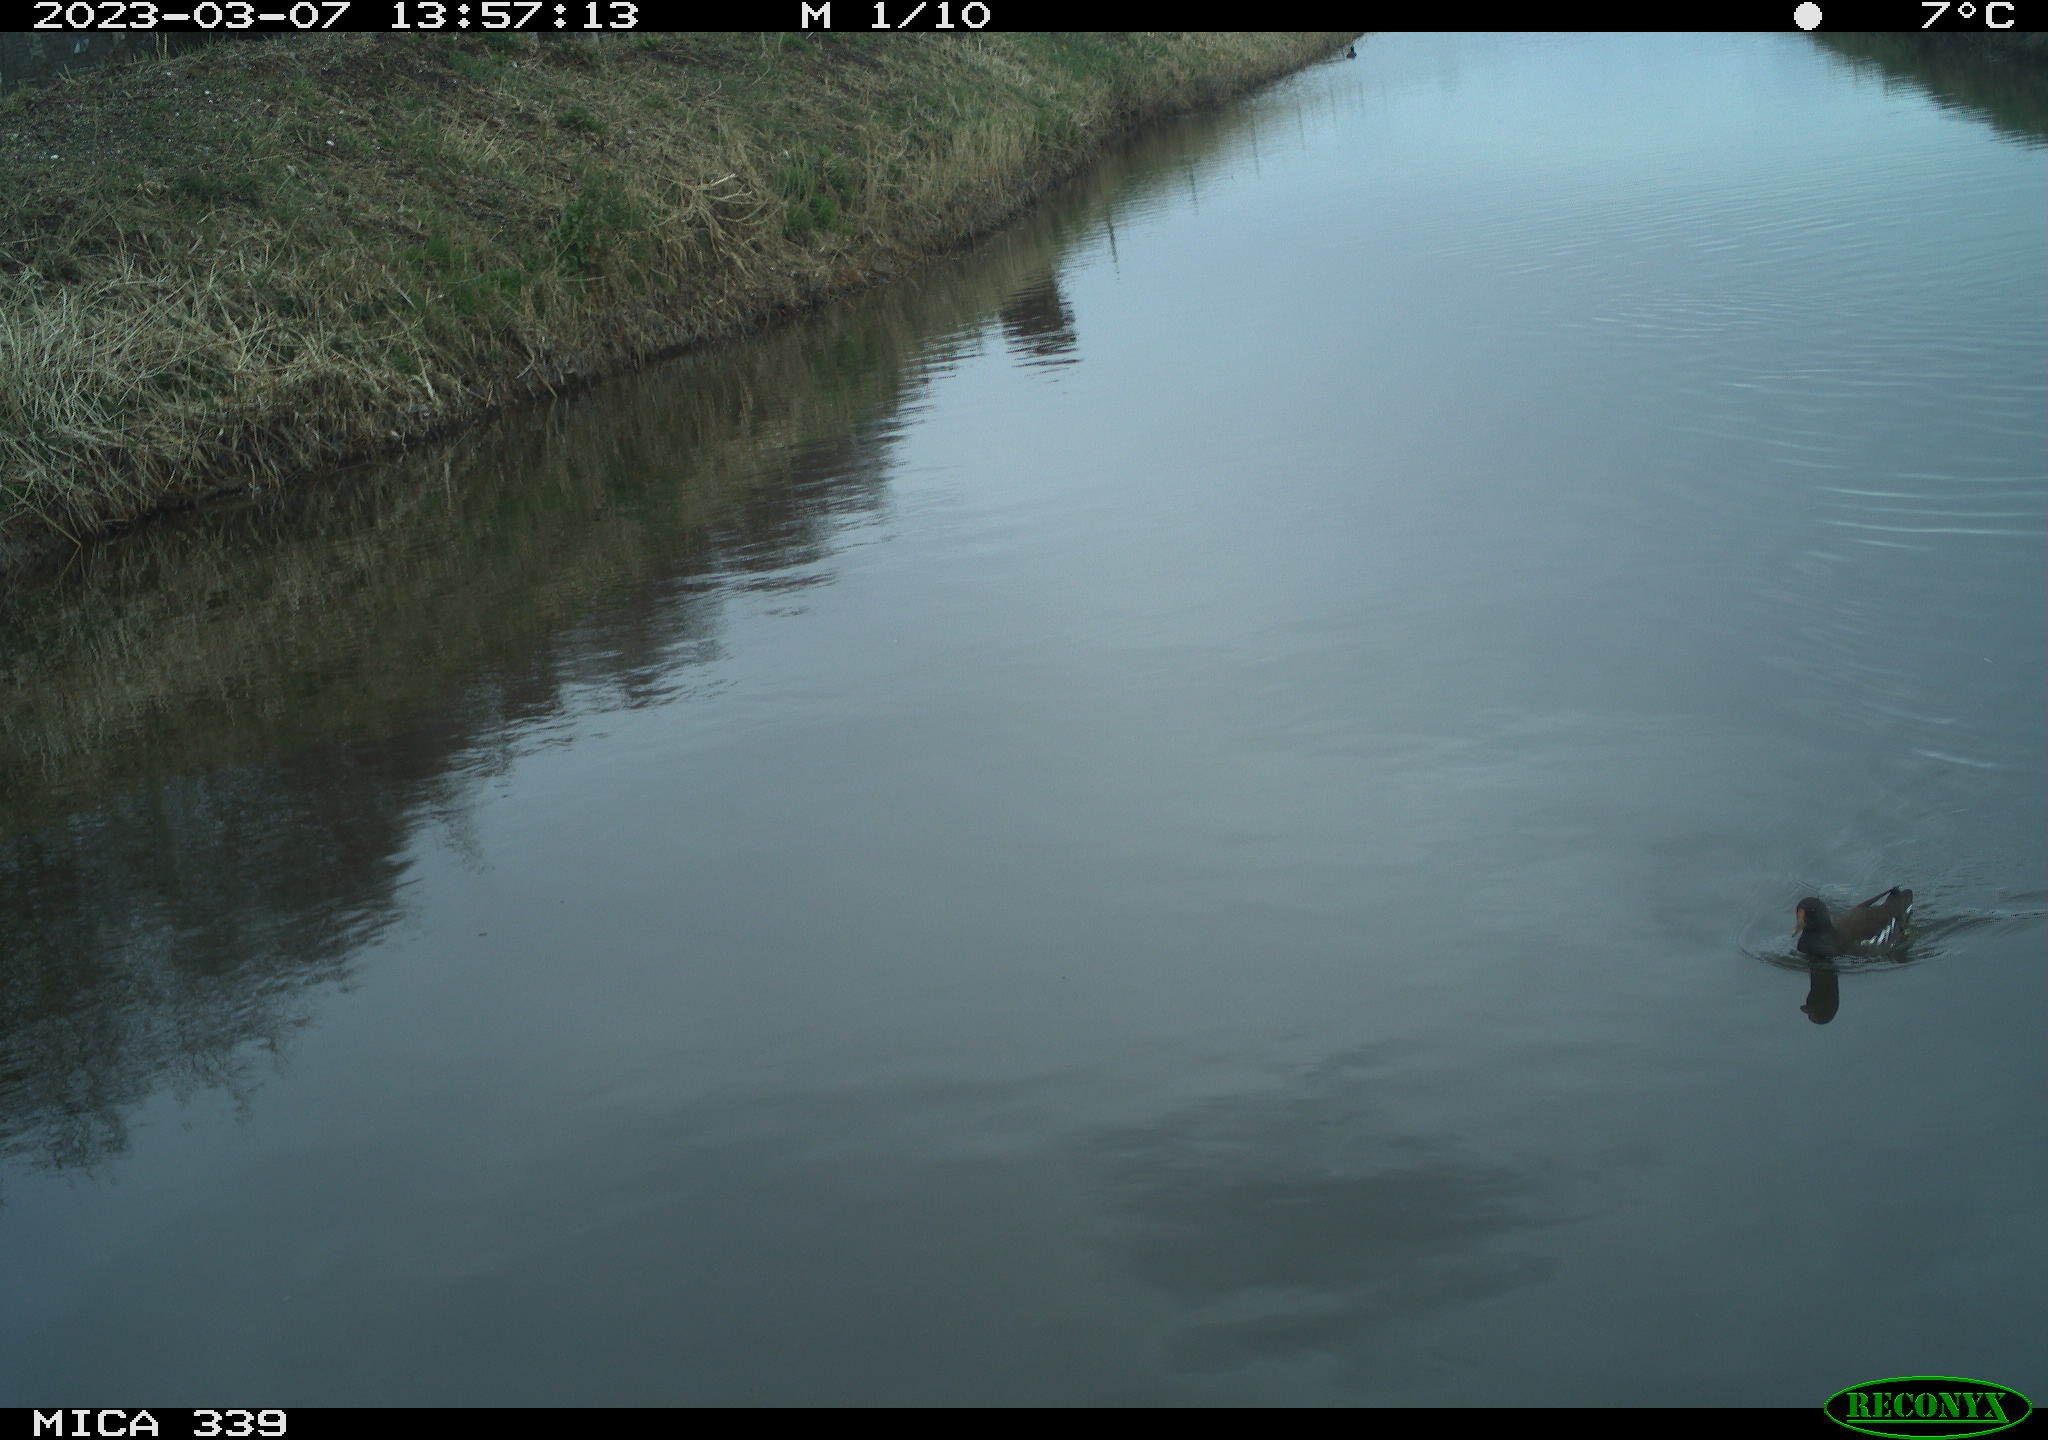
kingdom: Animalia
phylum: Chordata
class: Aves
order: Gruiformes
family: Rallidae
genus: Gallinula
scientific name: Gallinula chloropus
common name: Common moorhen
